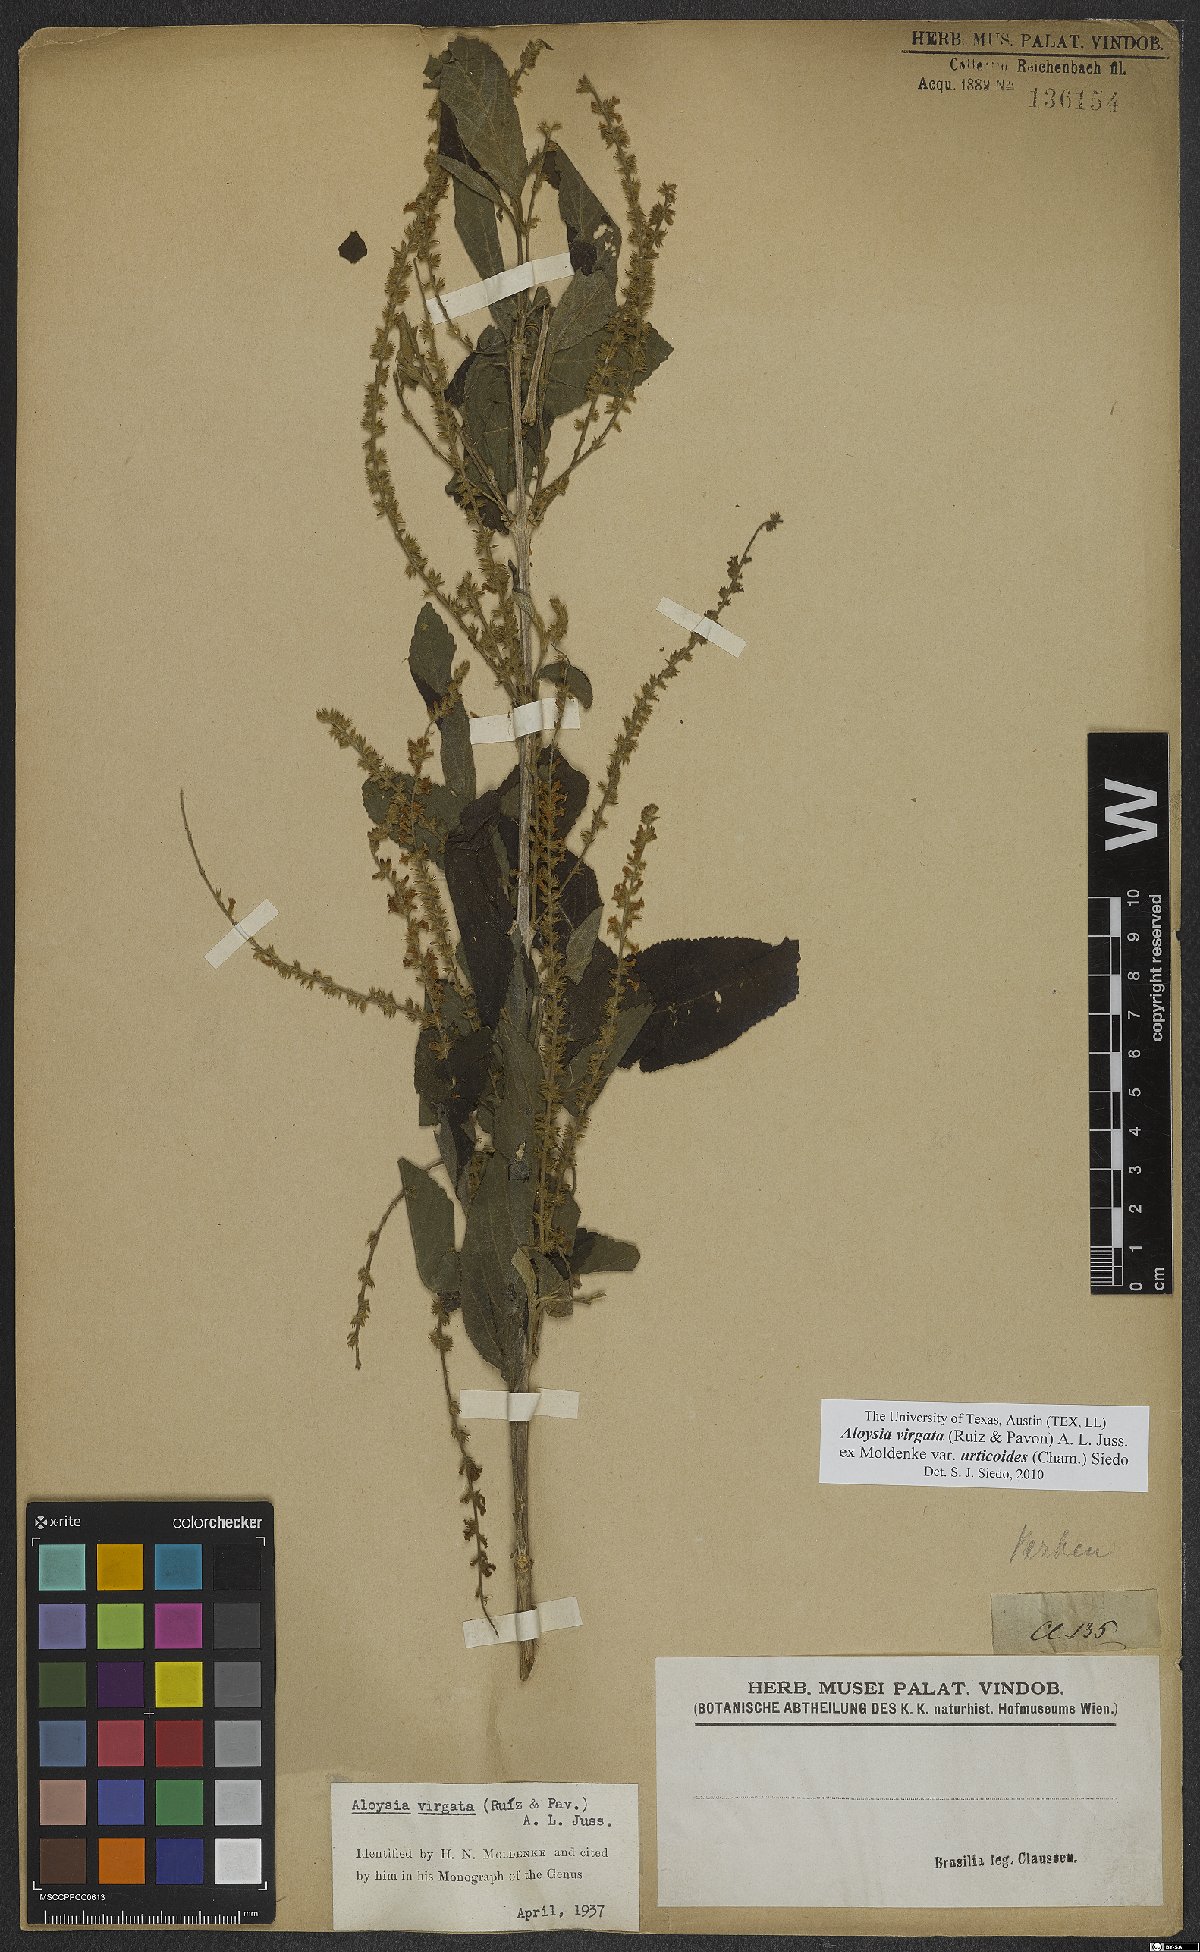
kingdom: Plantae
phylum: Tracheophyta
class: Magnoliopsida
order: Lamiales
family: Verbenaceae
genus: Aloysia
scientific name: Aloysia virgata
